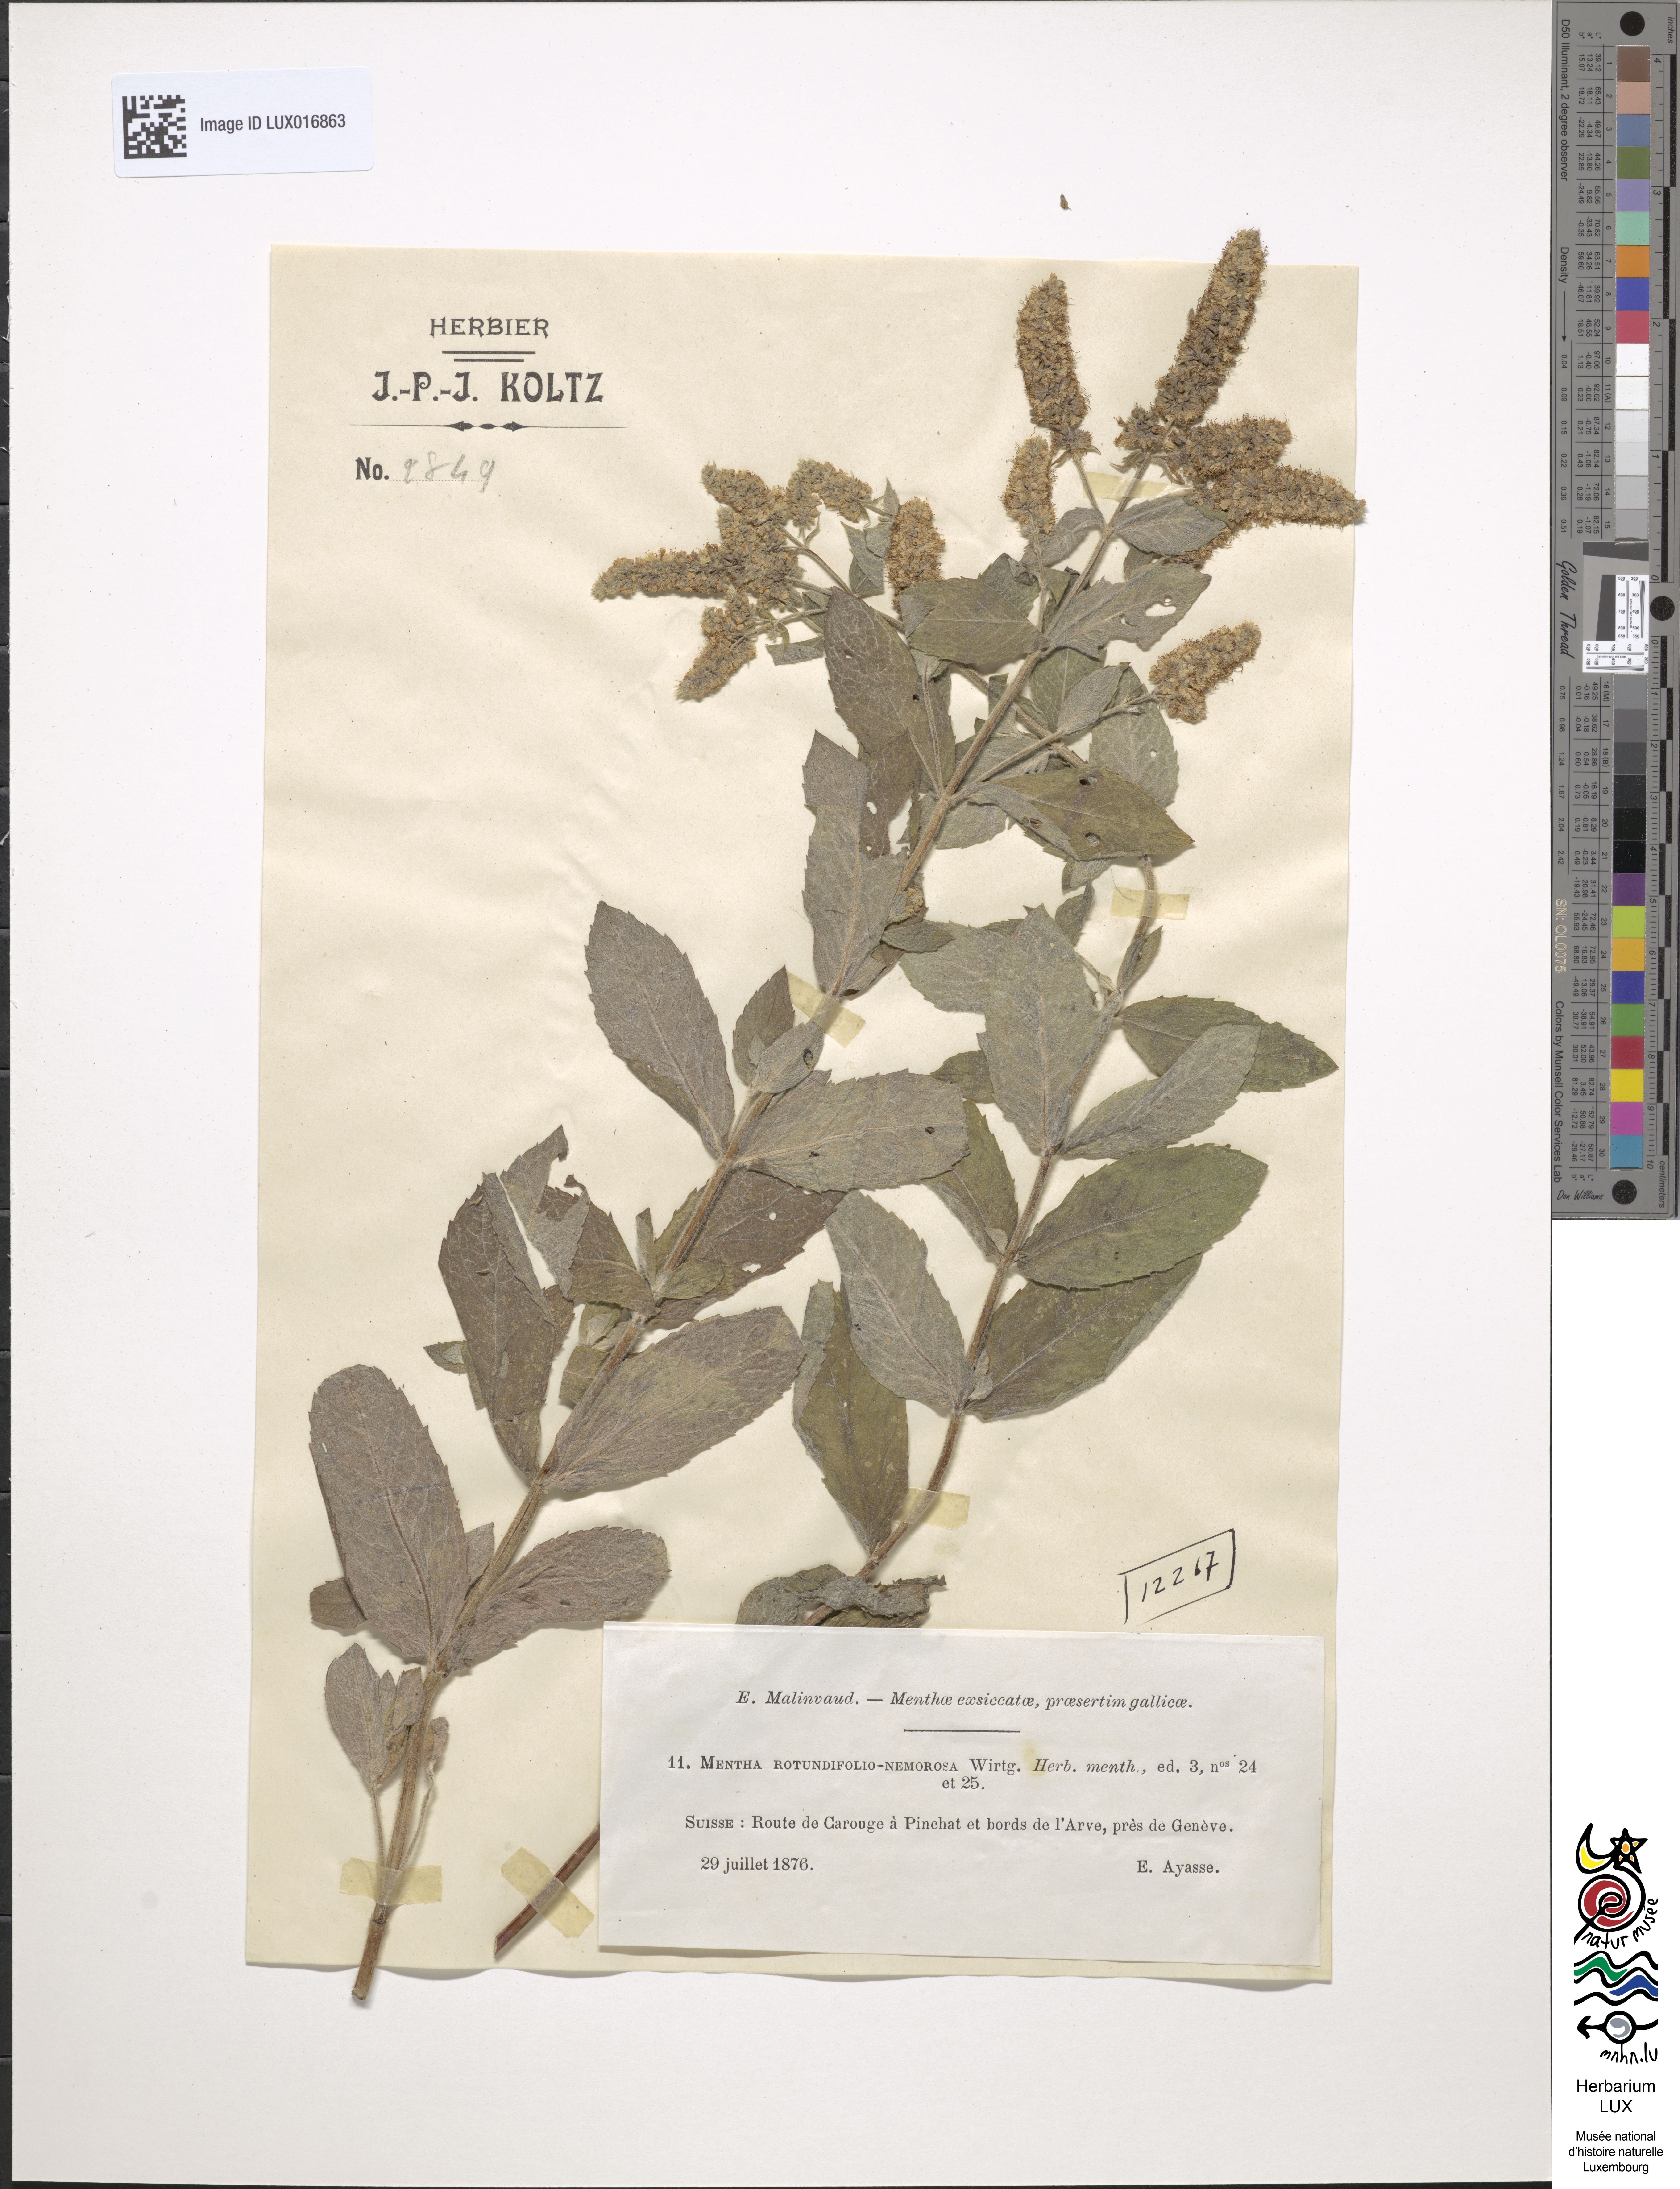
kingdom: Plantae
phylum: Tracheophyta
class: Magnoliopsida
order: Lamiales
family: Lamiaceae
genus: Mentha
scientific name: Mentha rotundifolia
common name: Bigleaf mint
